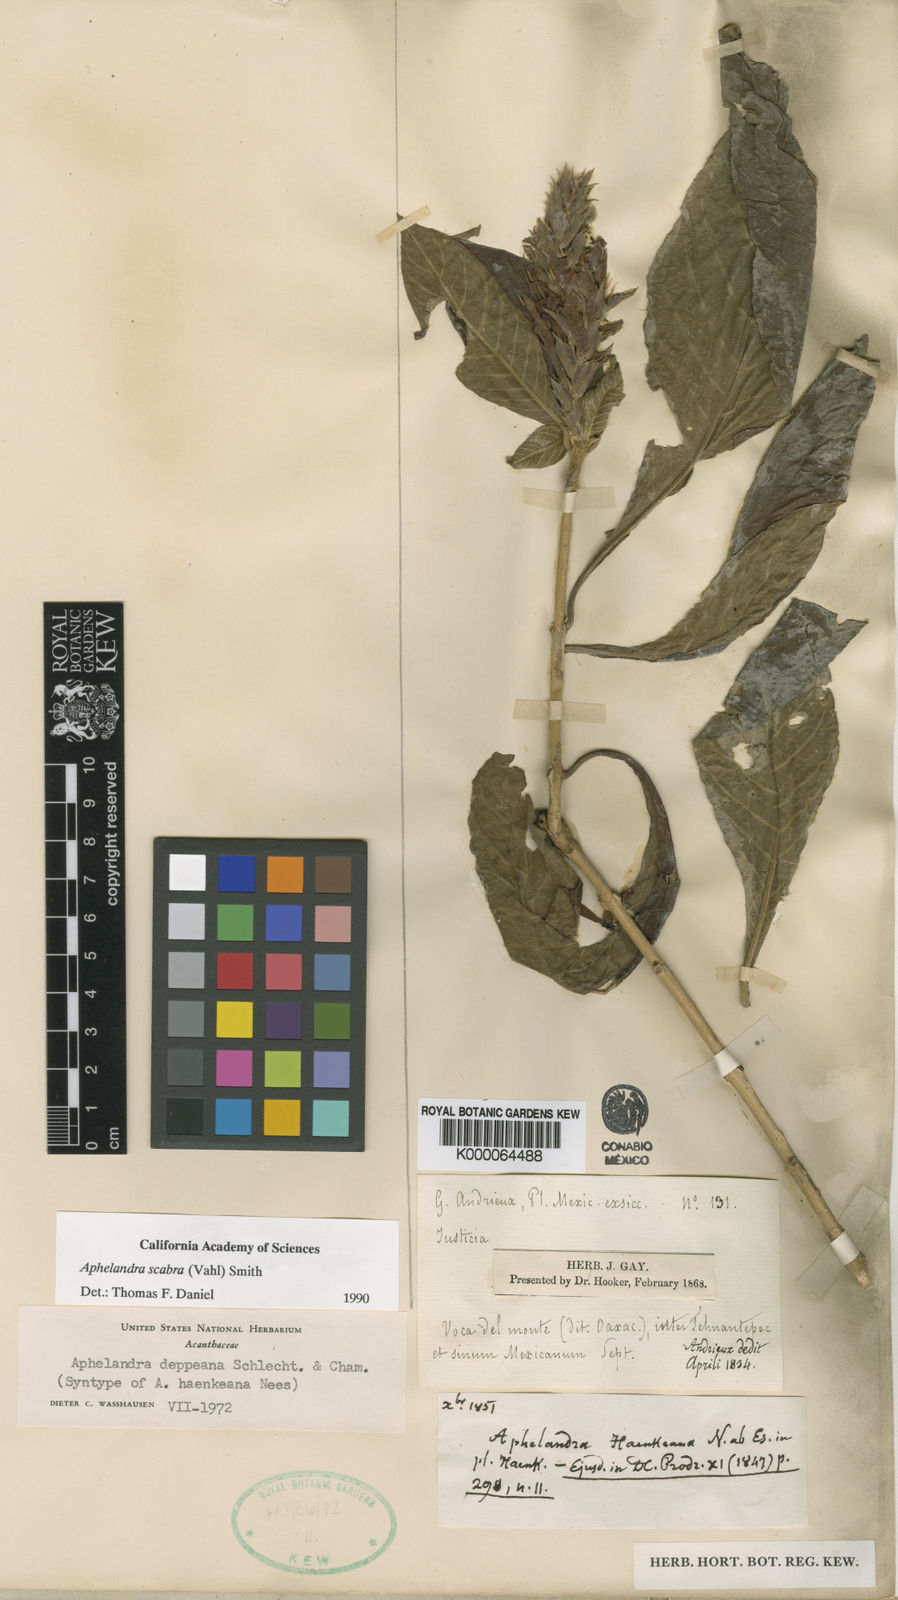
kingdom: Plantae
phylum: Tracheophyta
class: Magnoliopsida
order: Lamiales
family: Acanthaceae
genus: Aphelandra
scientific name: Aphelandra scabra
